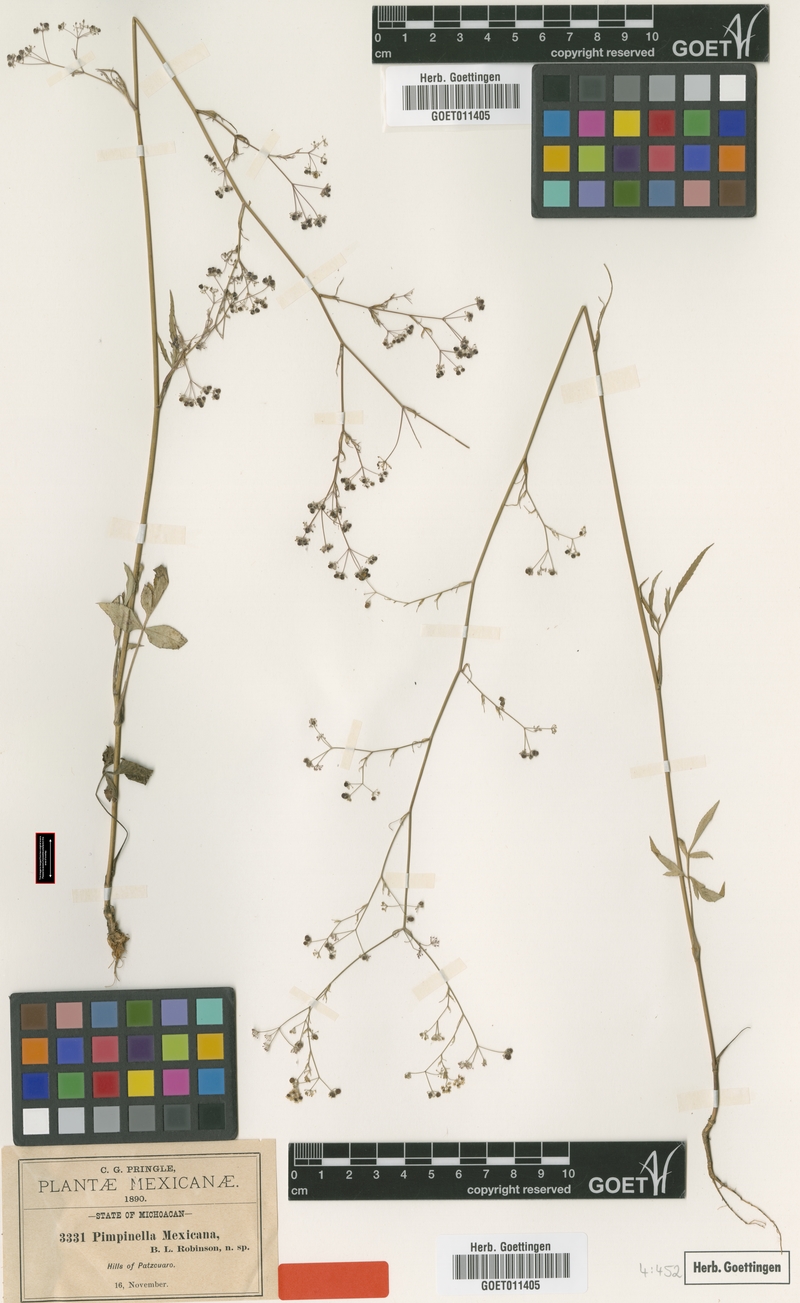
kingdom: Plantae
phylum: Tracheophyta
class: Magnoliopsida
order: Apiales
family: Apiaceae
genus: Donnellsmithia
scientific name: Donnellsmithia mexicana
